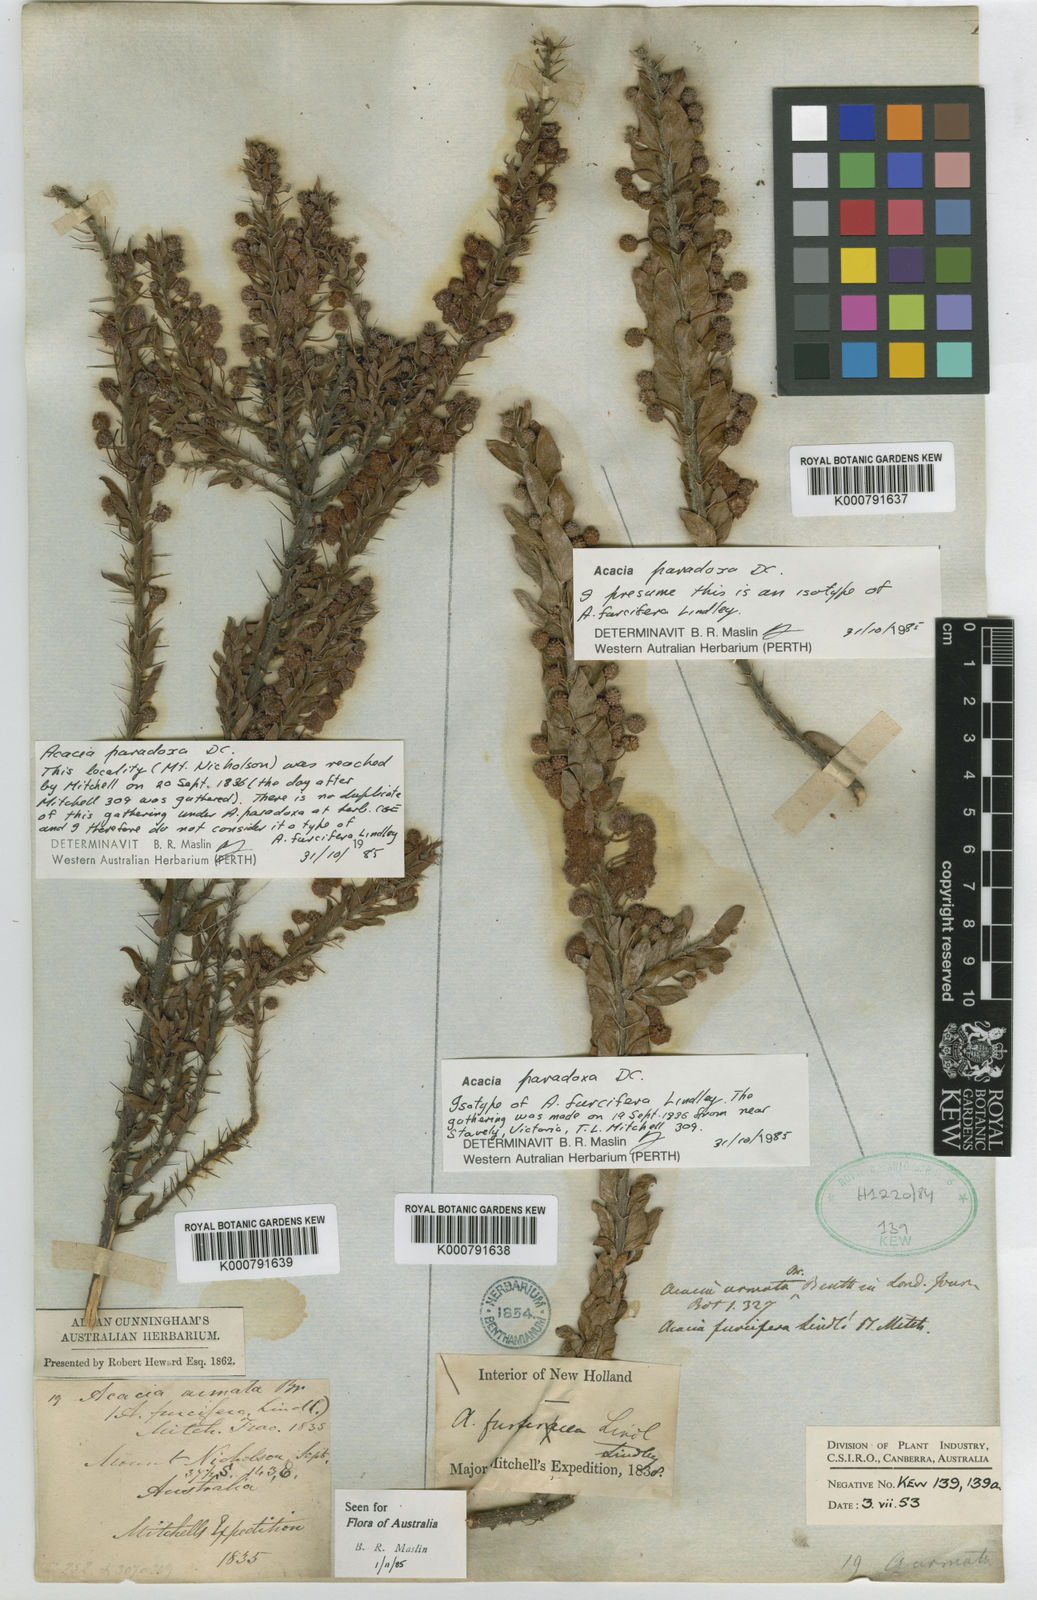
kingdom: Plantae
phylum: Tracheophyta
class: Magnoliopsida
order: Fabales
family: Fabaceae
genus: Acacia
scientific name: Acacia paradoxa
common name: Paradox acacia
